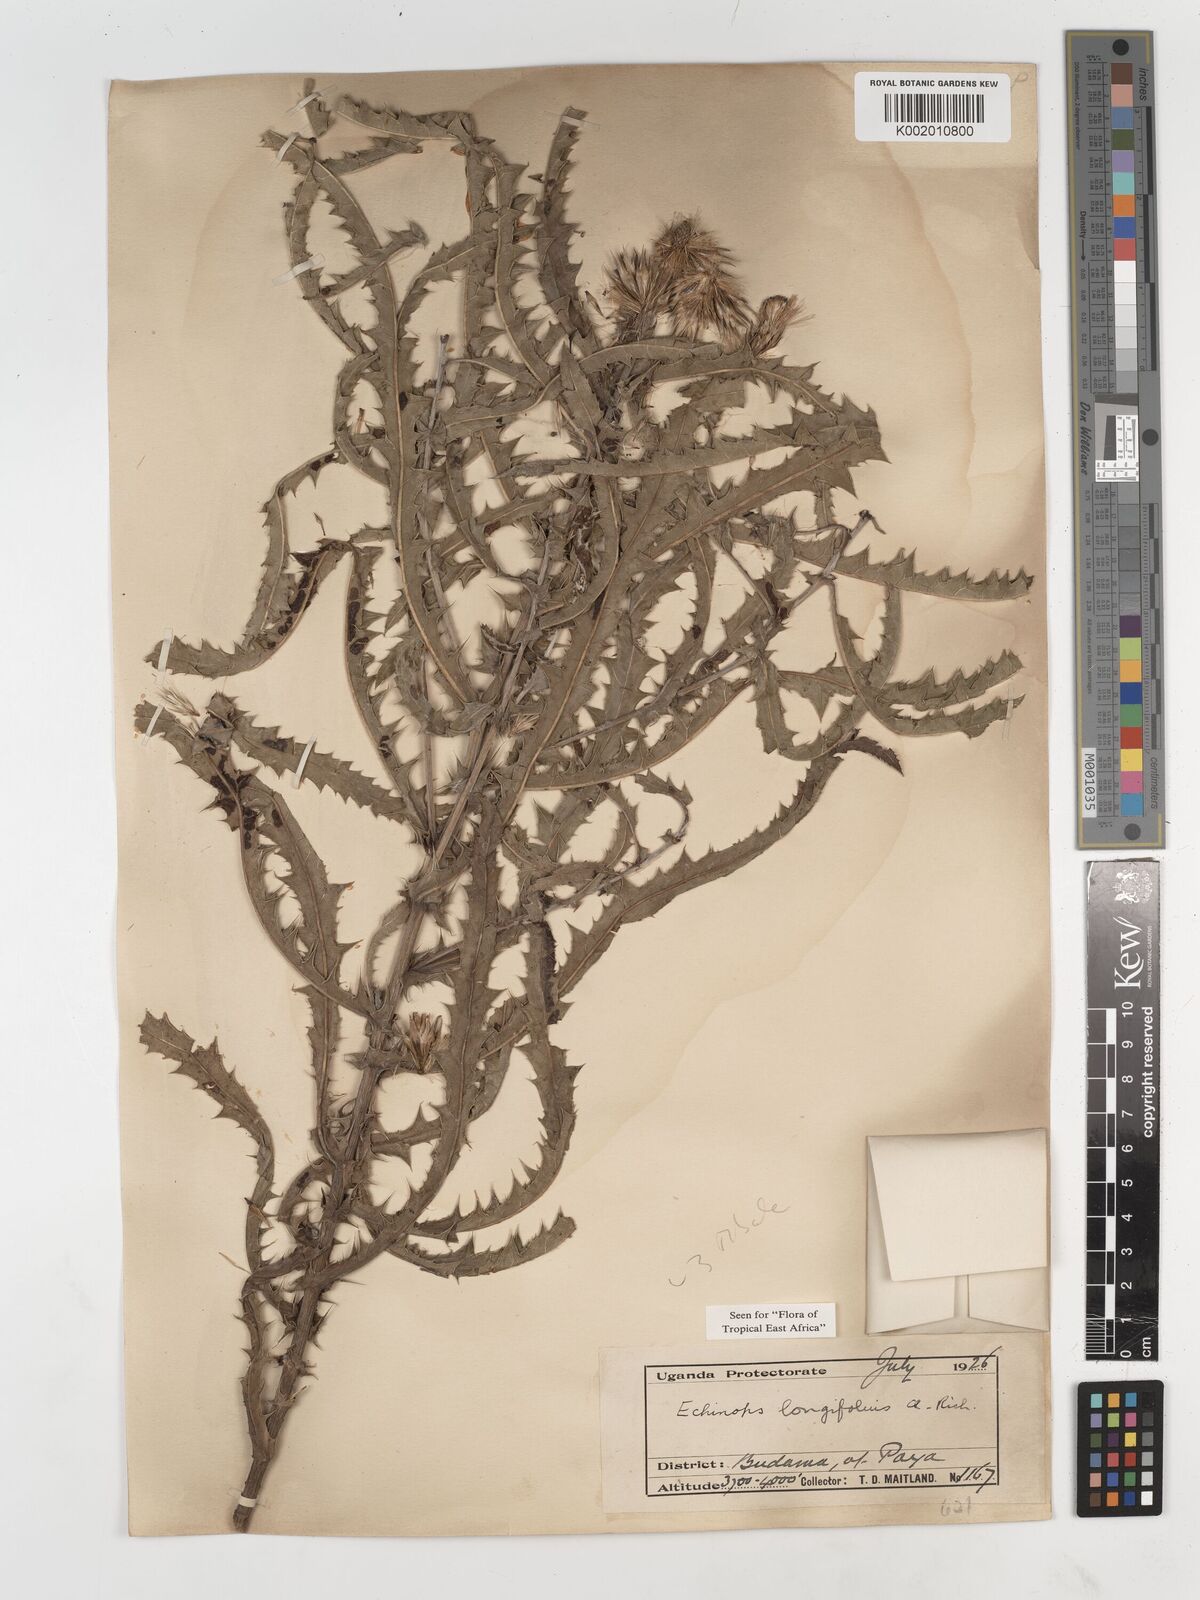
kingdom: Plantae
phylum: Tracheophyta
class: Magnoliopsida
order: Asterales
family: Asteraceae
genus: Echinops
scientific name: Echinops longifolius
